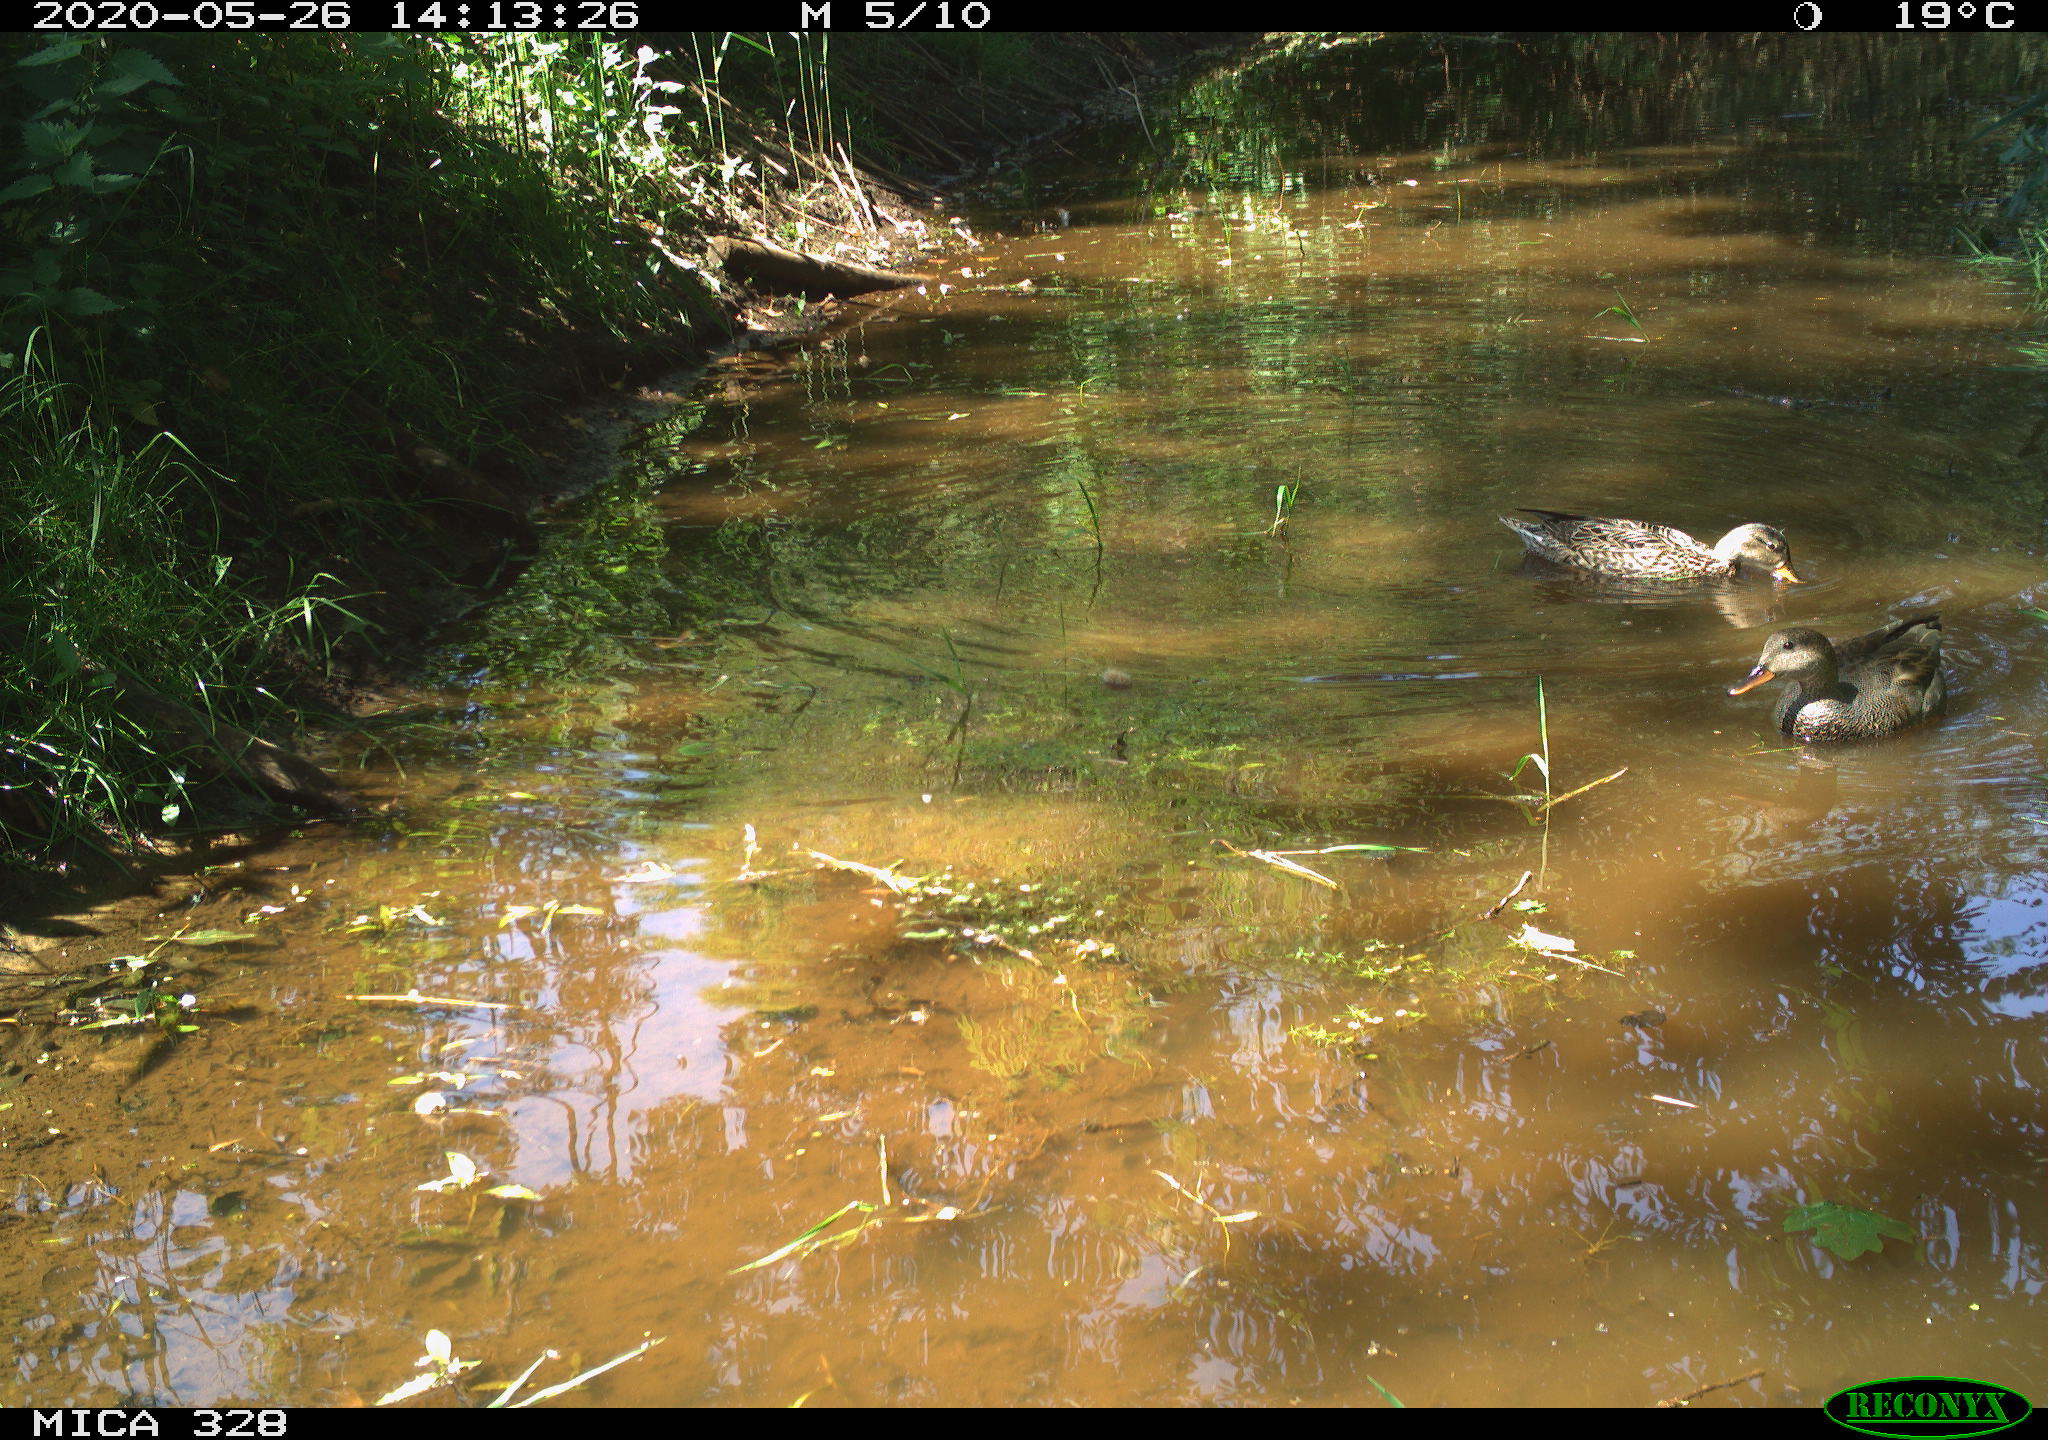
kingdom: Animalia
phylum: Chordata
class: Aves
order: Anseriformes
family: Anatidae
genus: Anas
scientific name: Anas platyrhynchos
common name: Mallard
